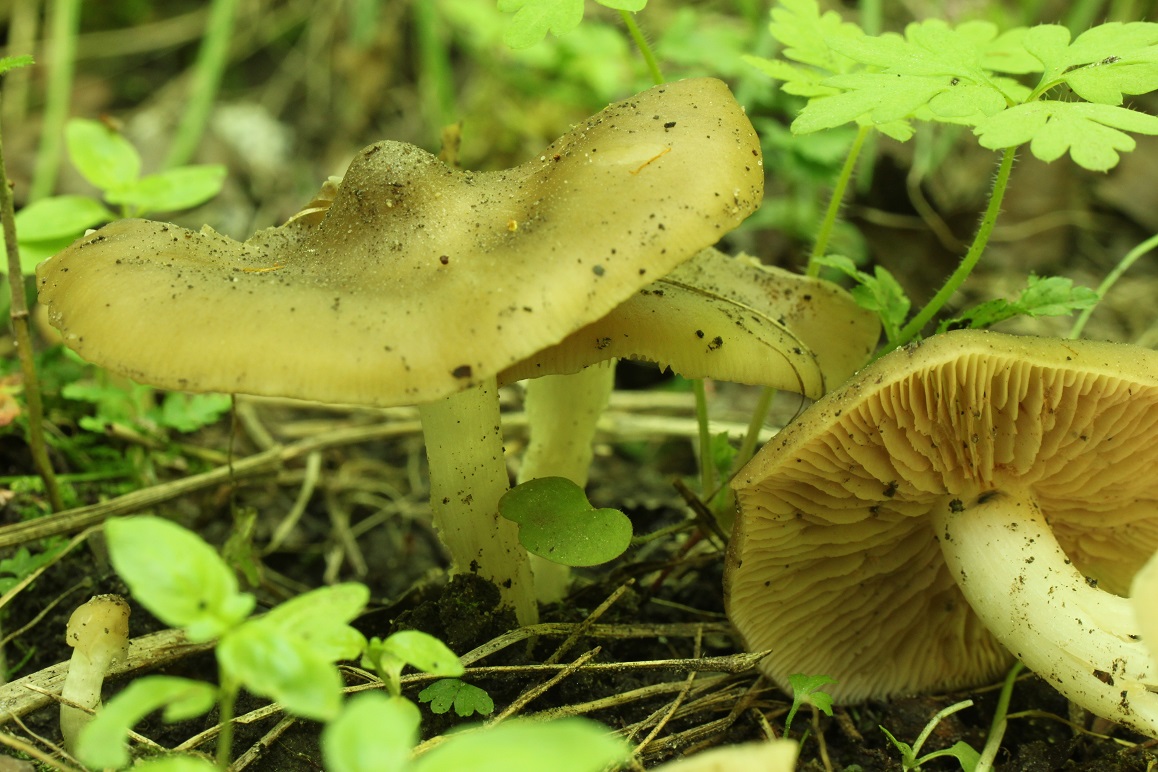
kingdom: Fungi
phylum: Basidiomycota
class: Agaricomycetes
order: Agaricales
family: Entolomataceae
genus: Entoloma
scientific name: Entoloma clypeatum
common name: flammet rødblad
